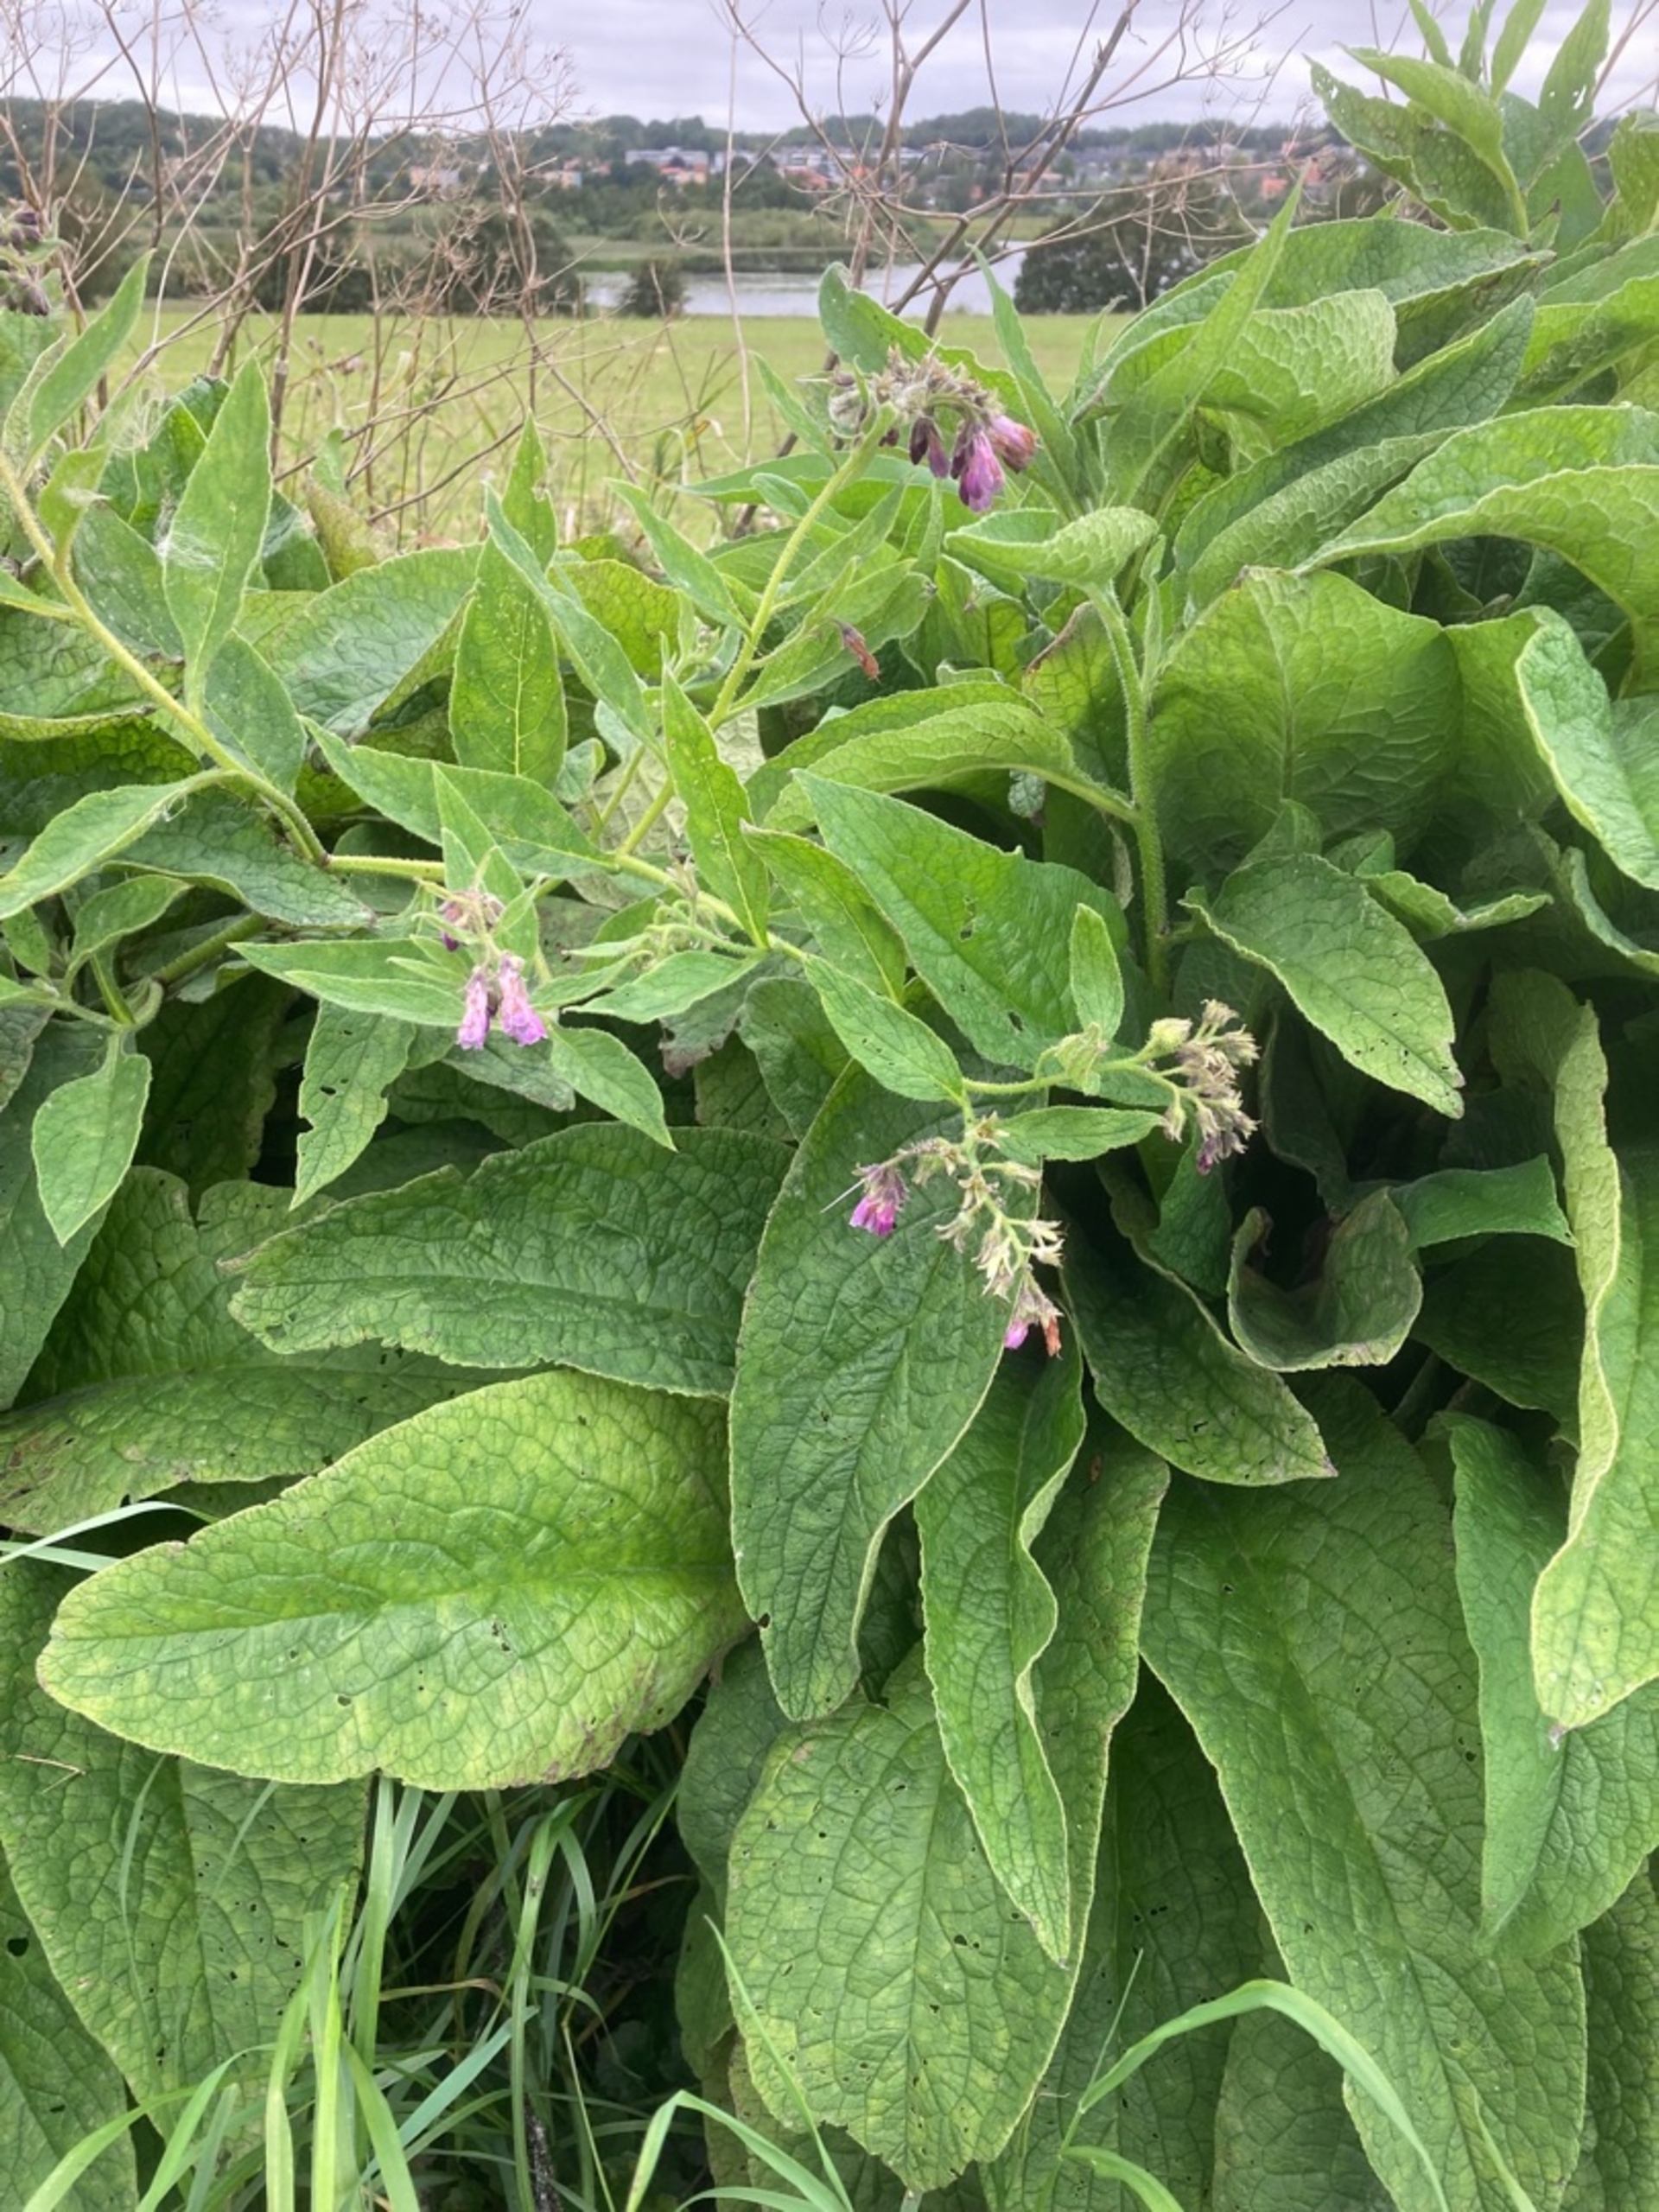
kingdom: Plantae
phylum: Tracheophyta
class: Magnoliopsida
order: Boraginales
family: Boraginaceae
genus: Symphytum
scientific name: Symphytum uplandicum
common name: Foder-kulsukker
